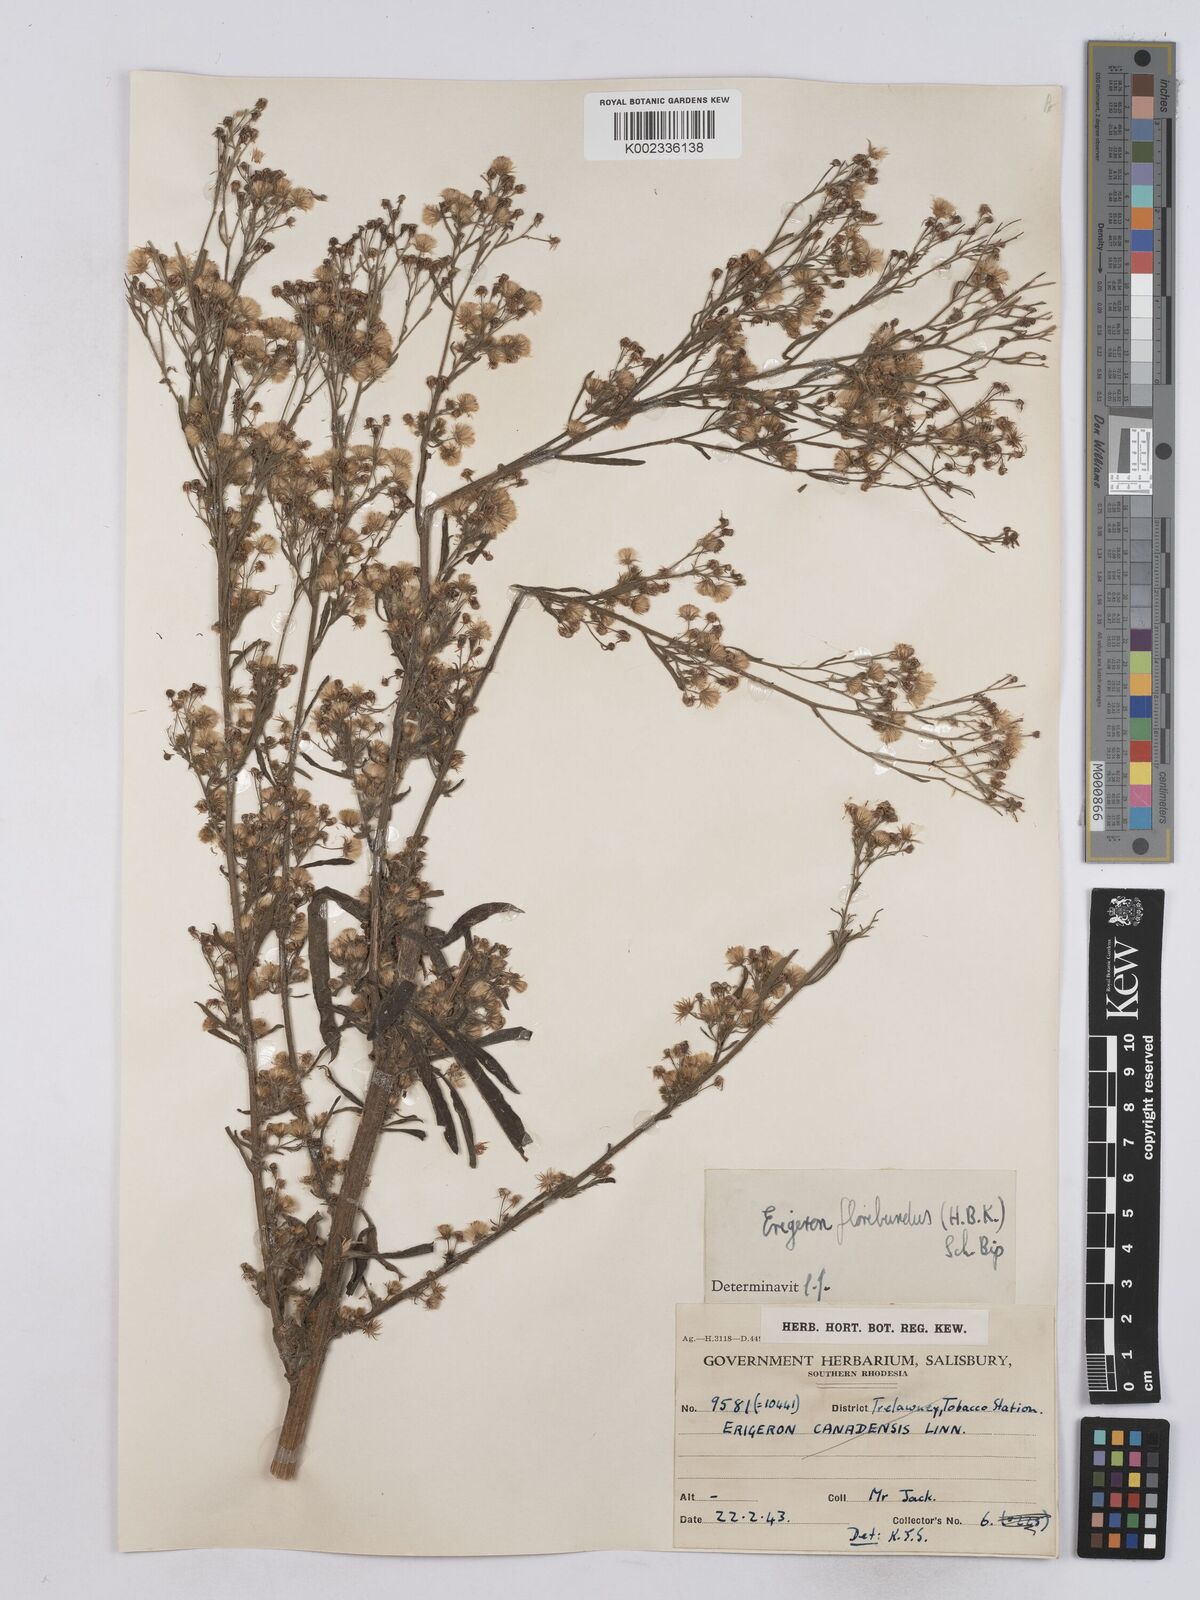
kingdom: Plantae
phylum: Tracheophyta
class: Magnoliopsida
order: Asterales
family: Asteraceae
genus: Erigeron
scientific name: Erigeron floribundus
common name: Bilbao fleabane
